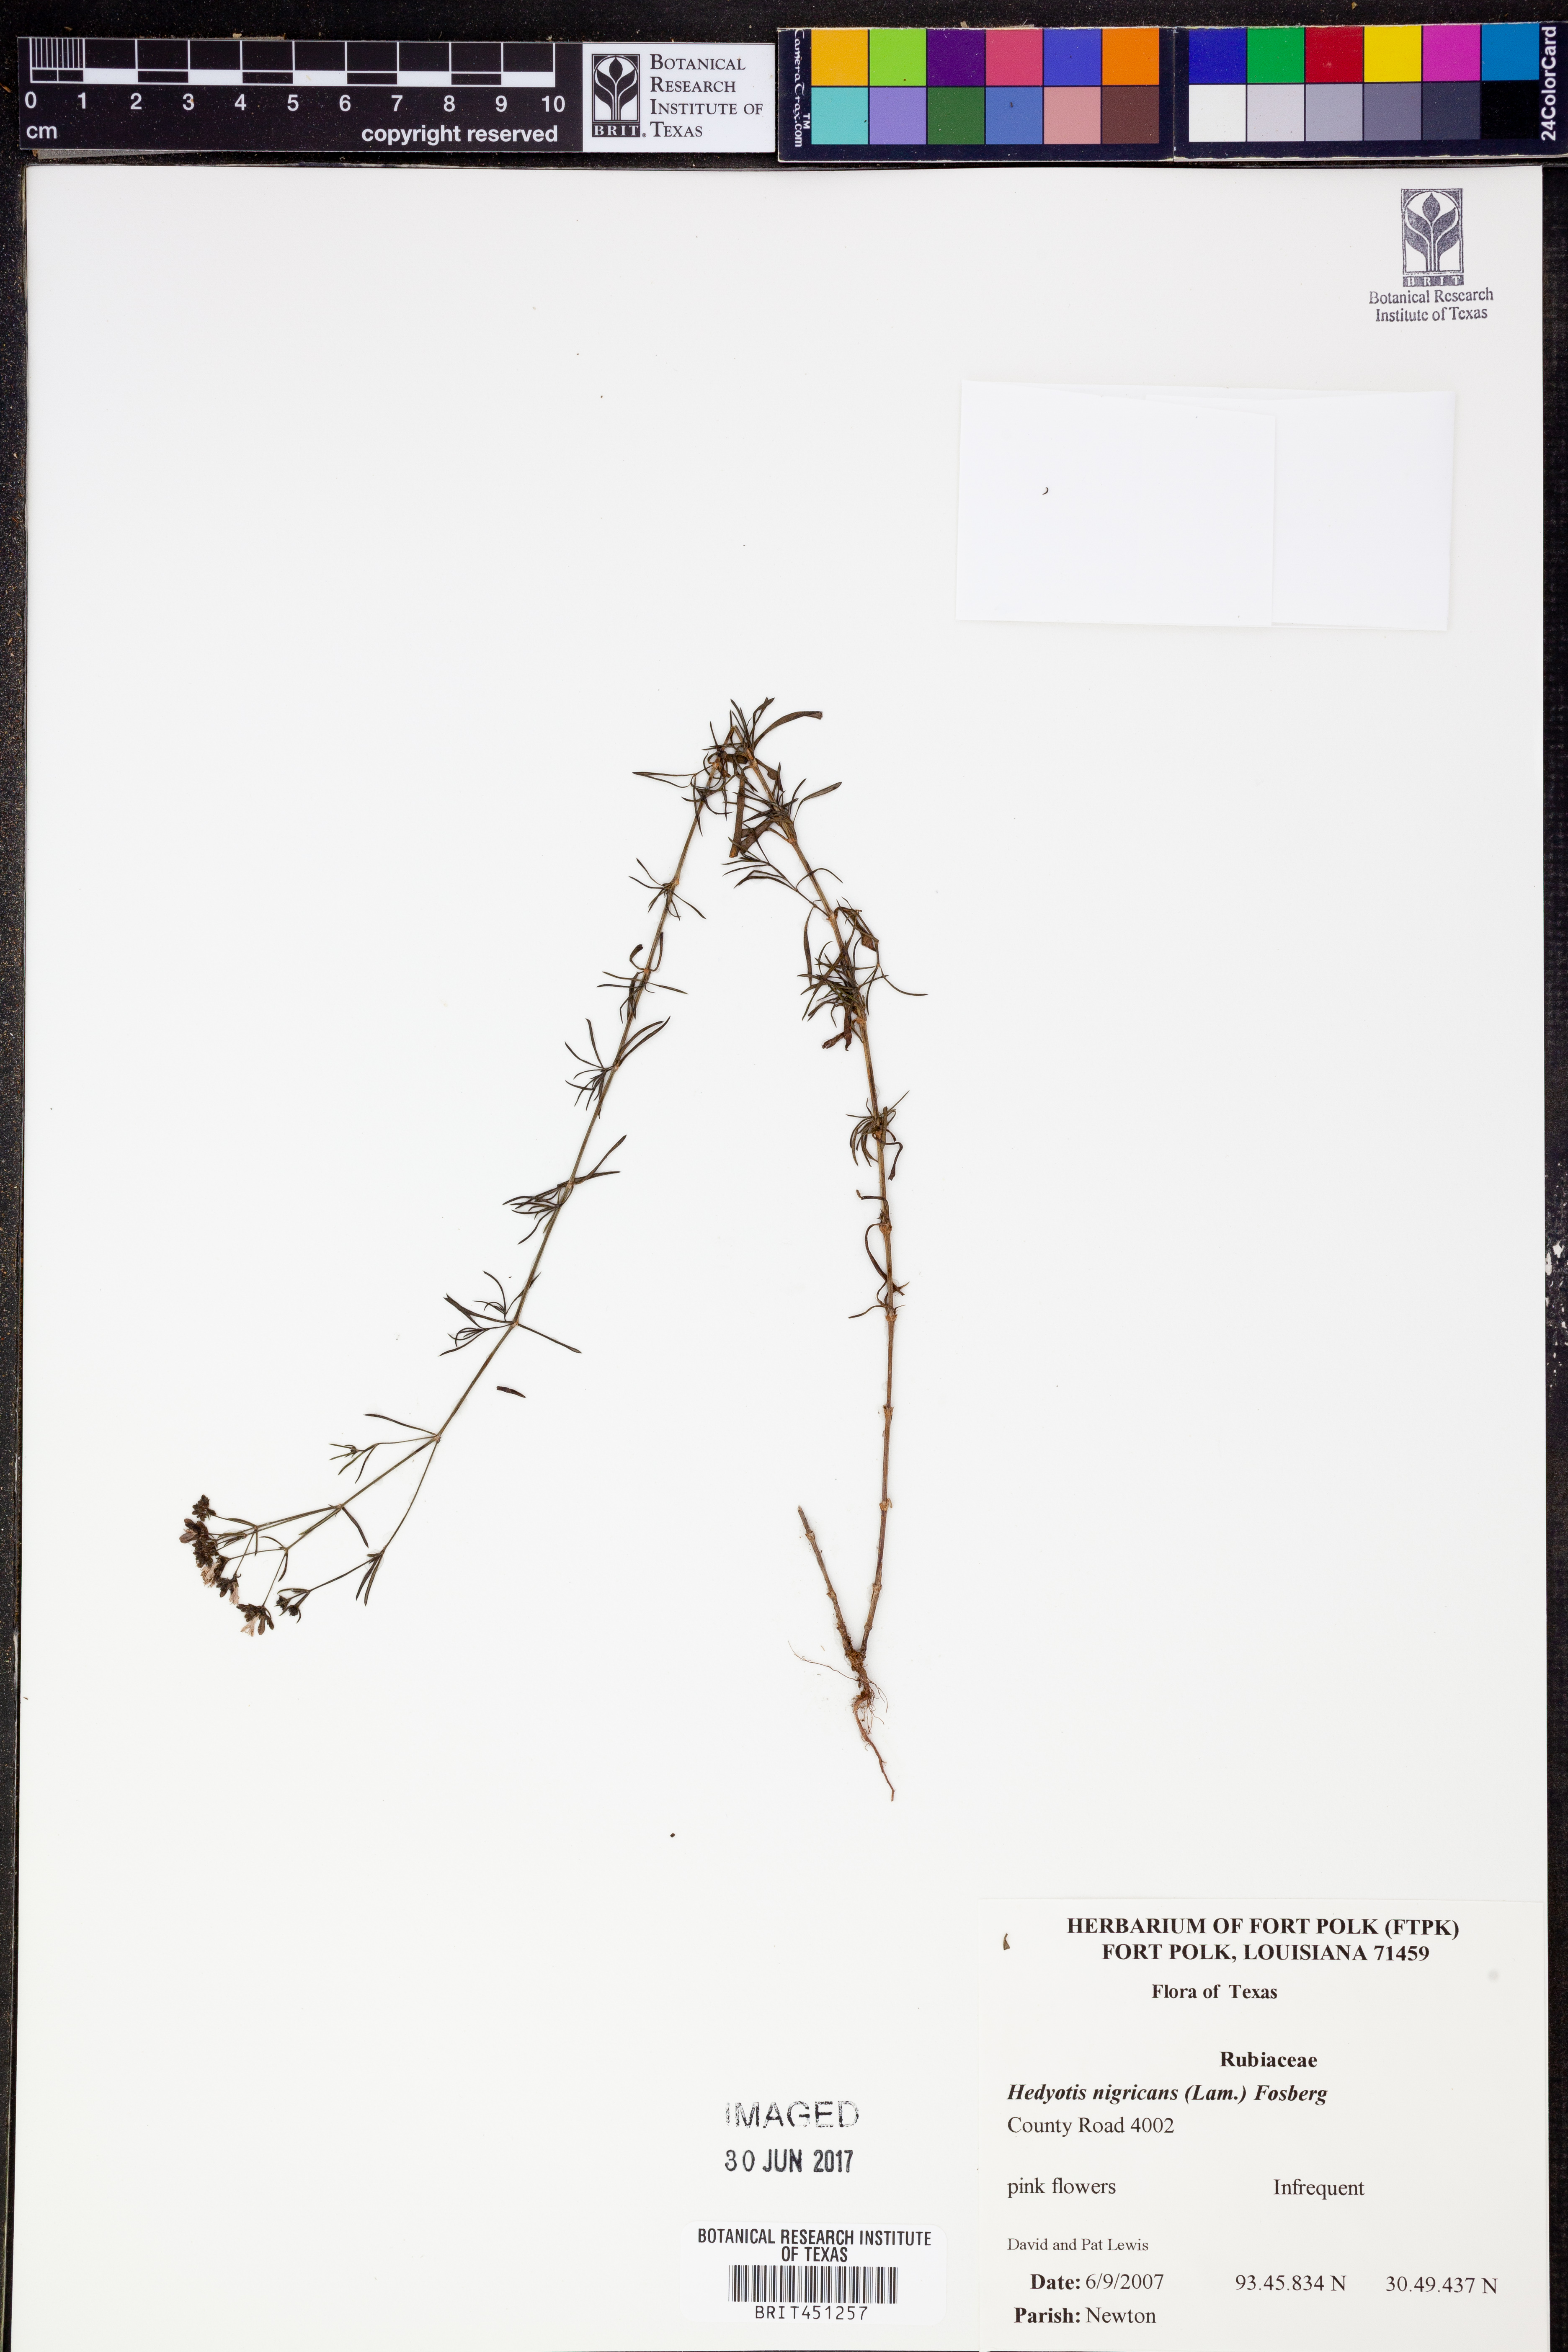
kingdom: Plantae
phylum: Tracheophyta
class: Magnoliopsida
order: Gentianales
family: Rubiaceae
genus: Stenaria
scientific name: Stenaria nigricans
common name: Diamondflowers
